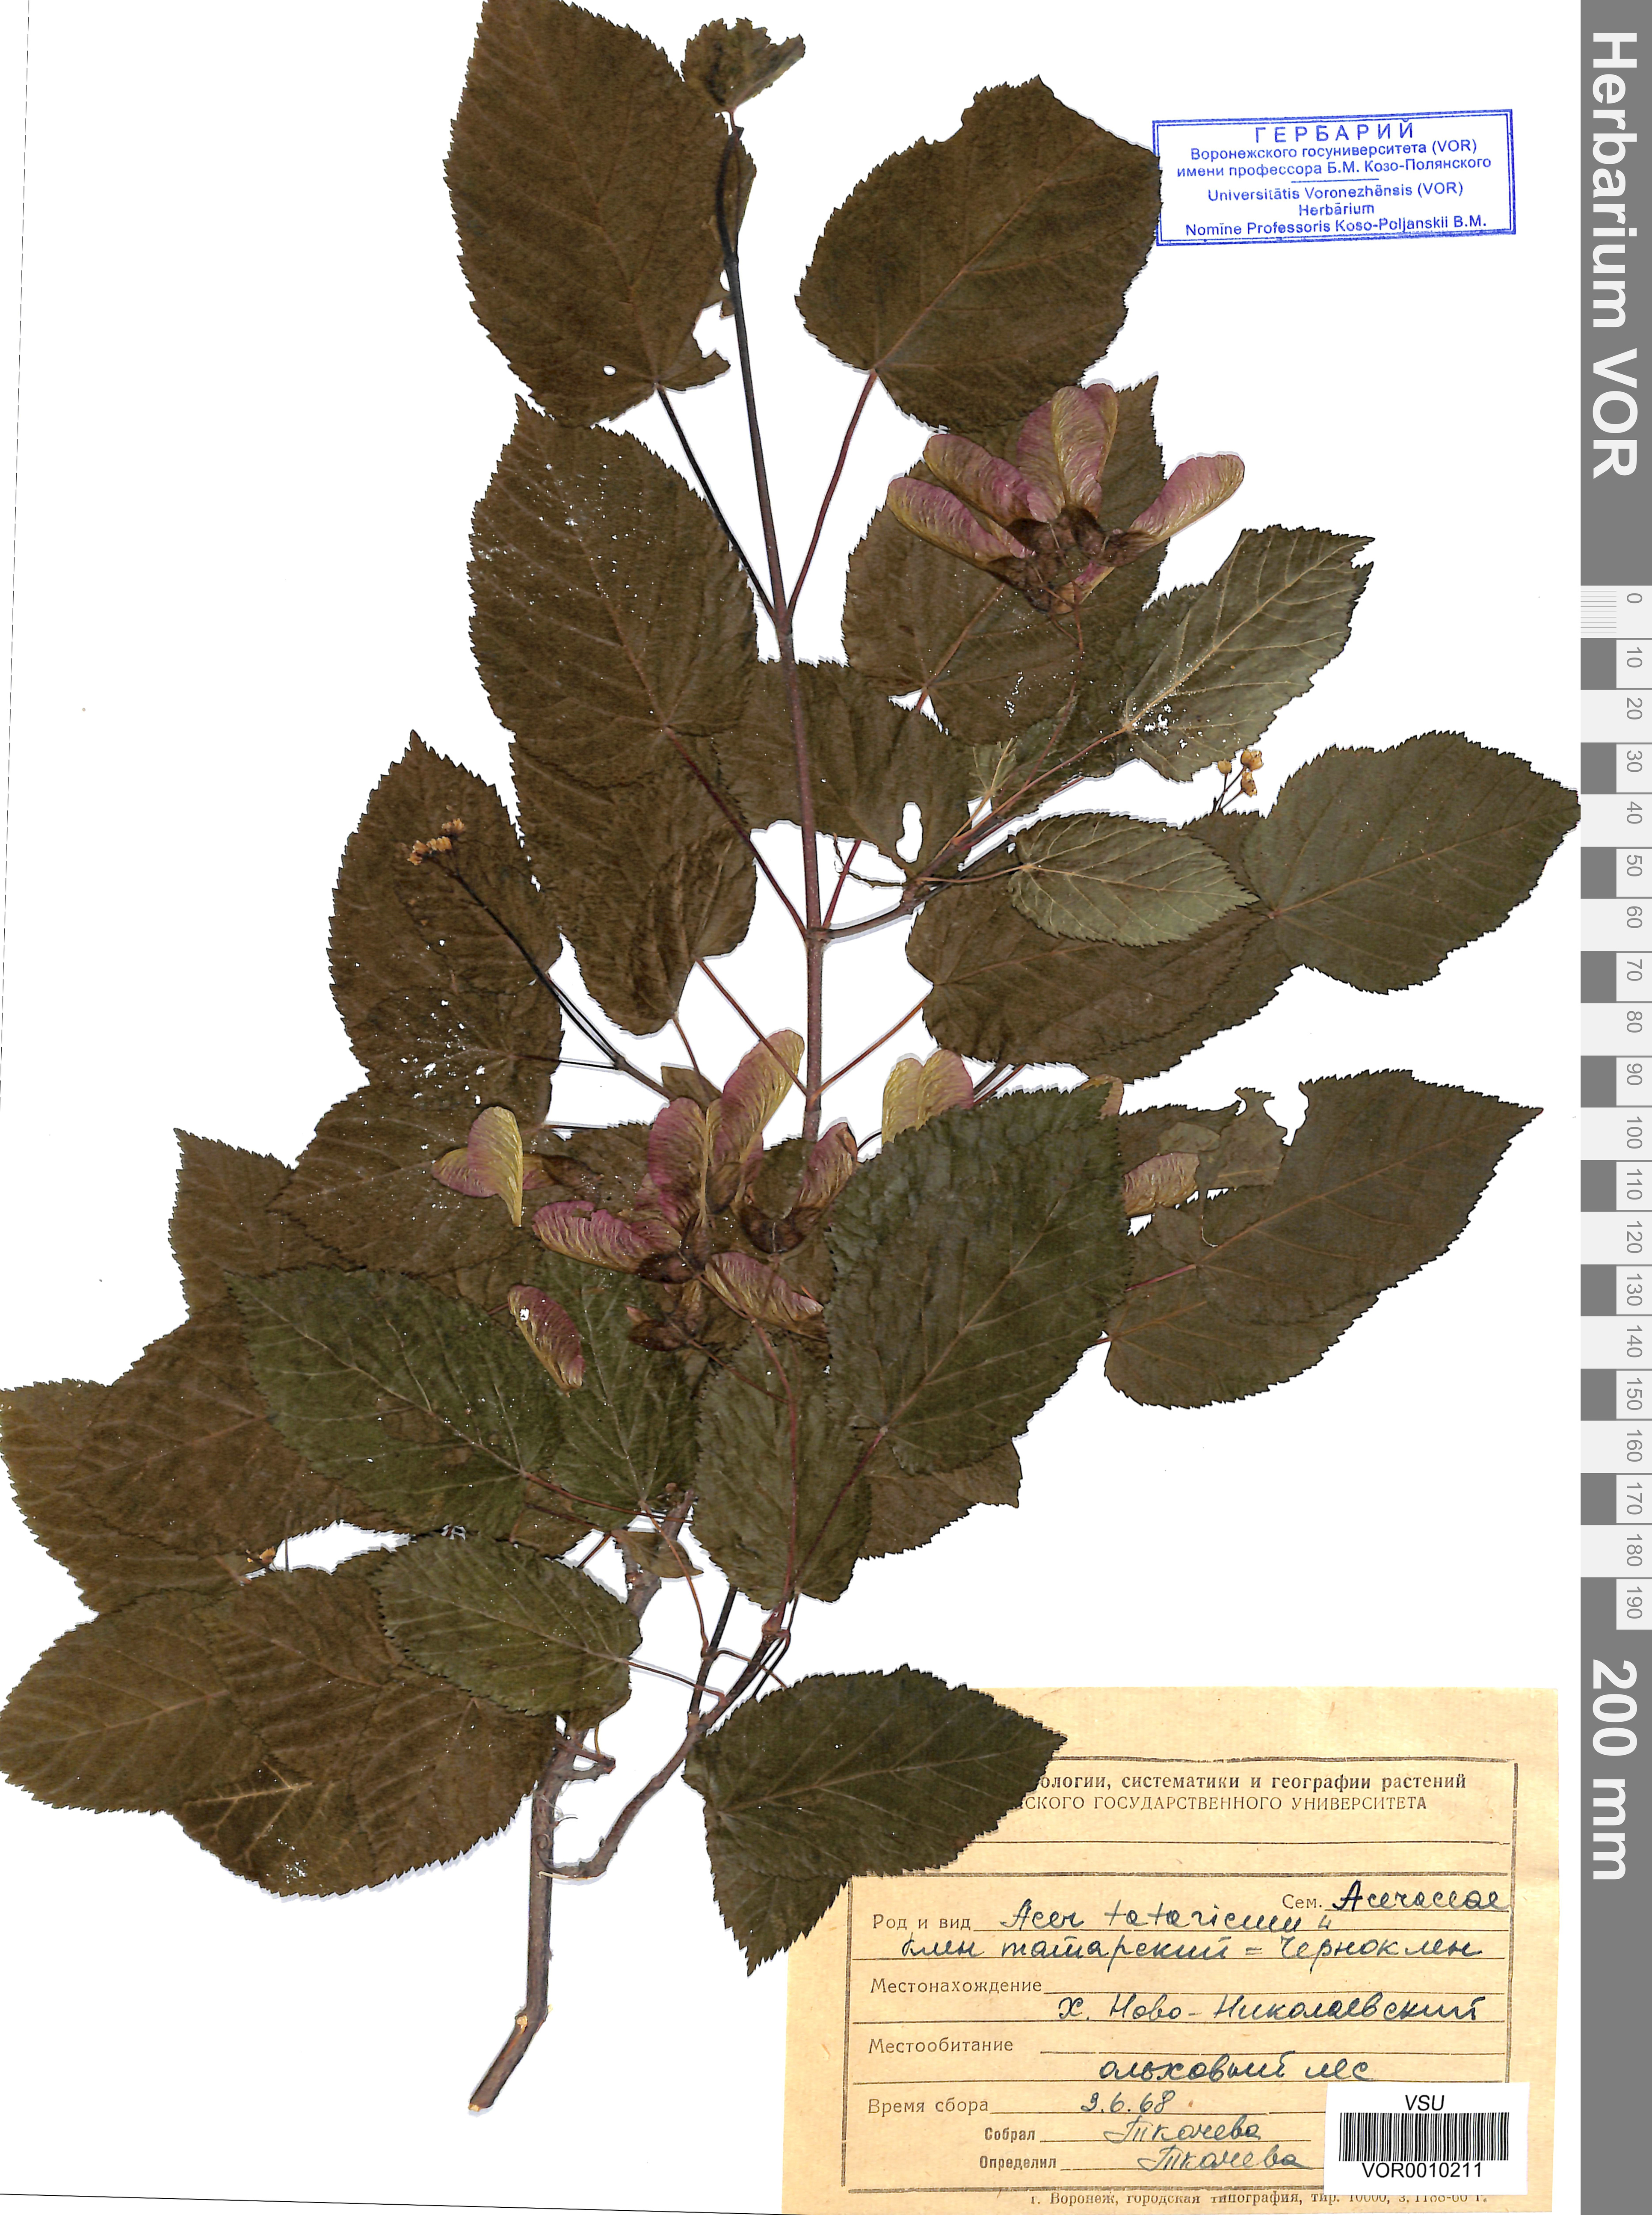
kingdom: Plantae
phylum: Tracheophyta
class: Magnoliopsida
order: Sapindales
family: Sapindaceae
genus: Acer
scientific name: Acer tataricum
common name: Tartar maple
